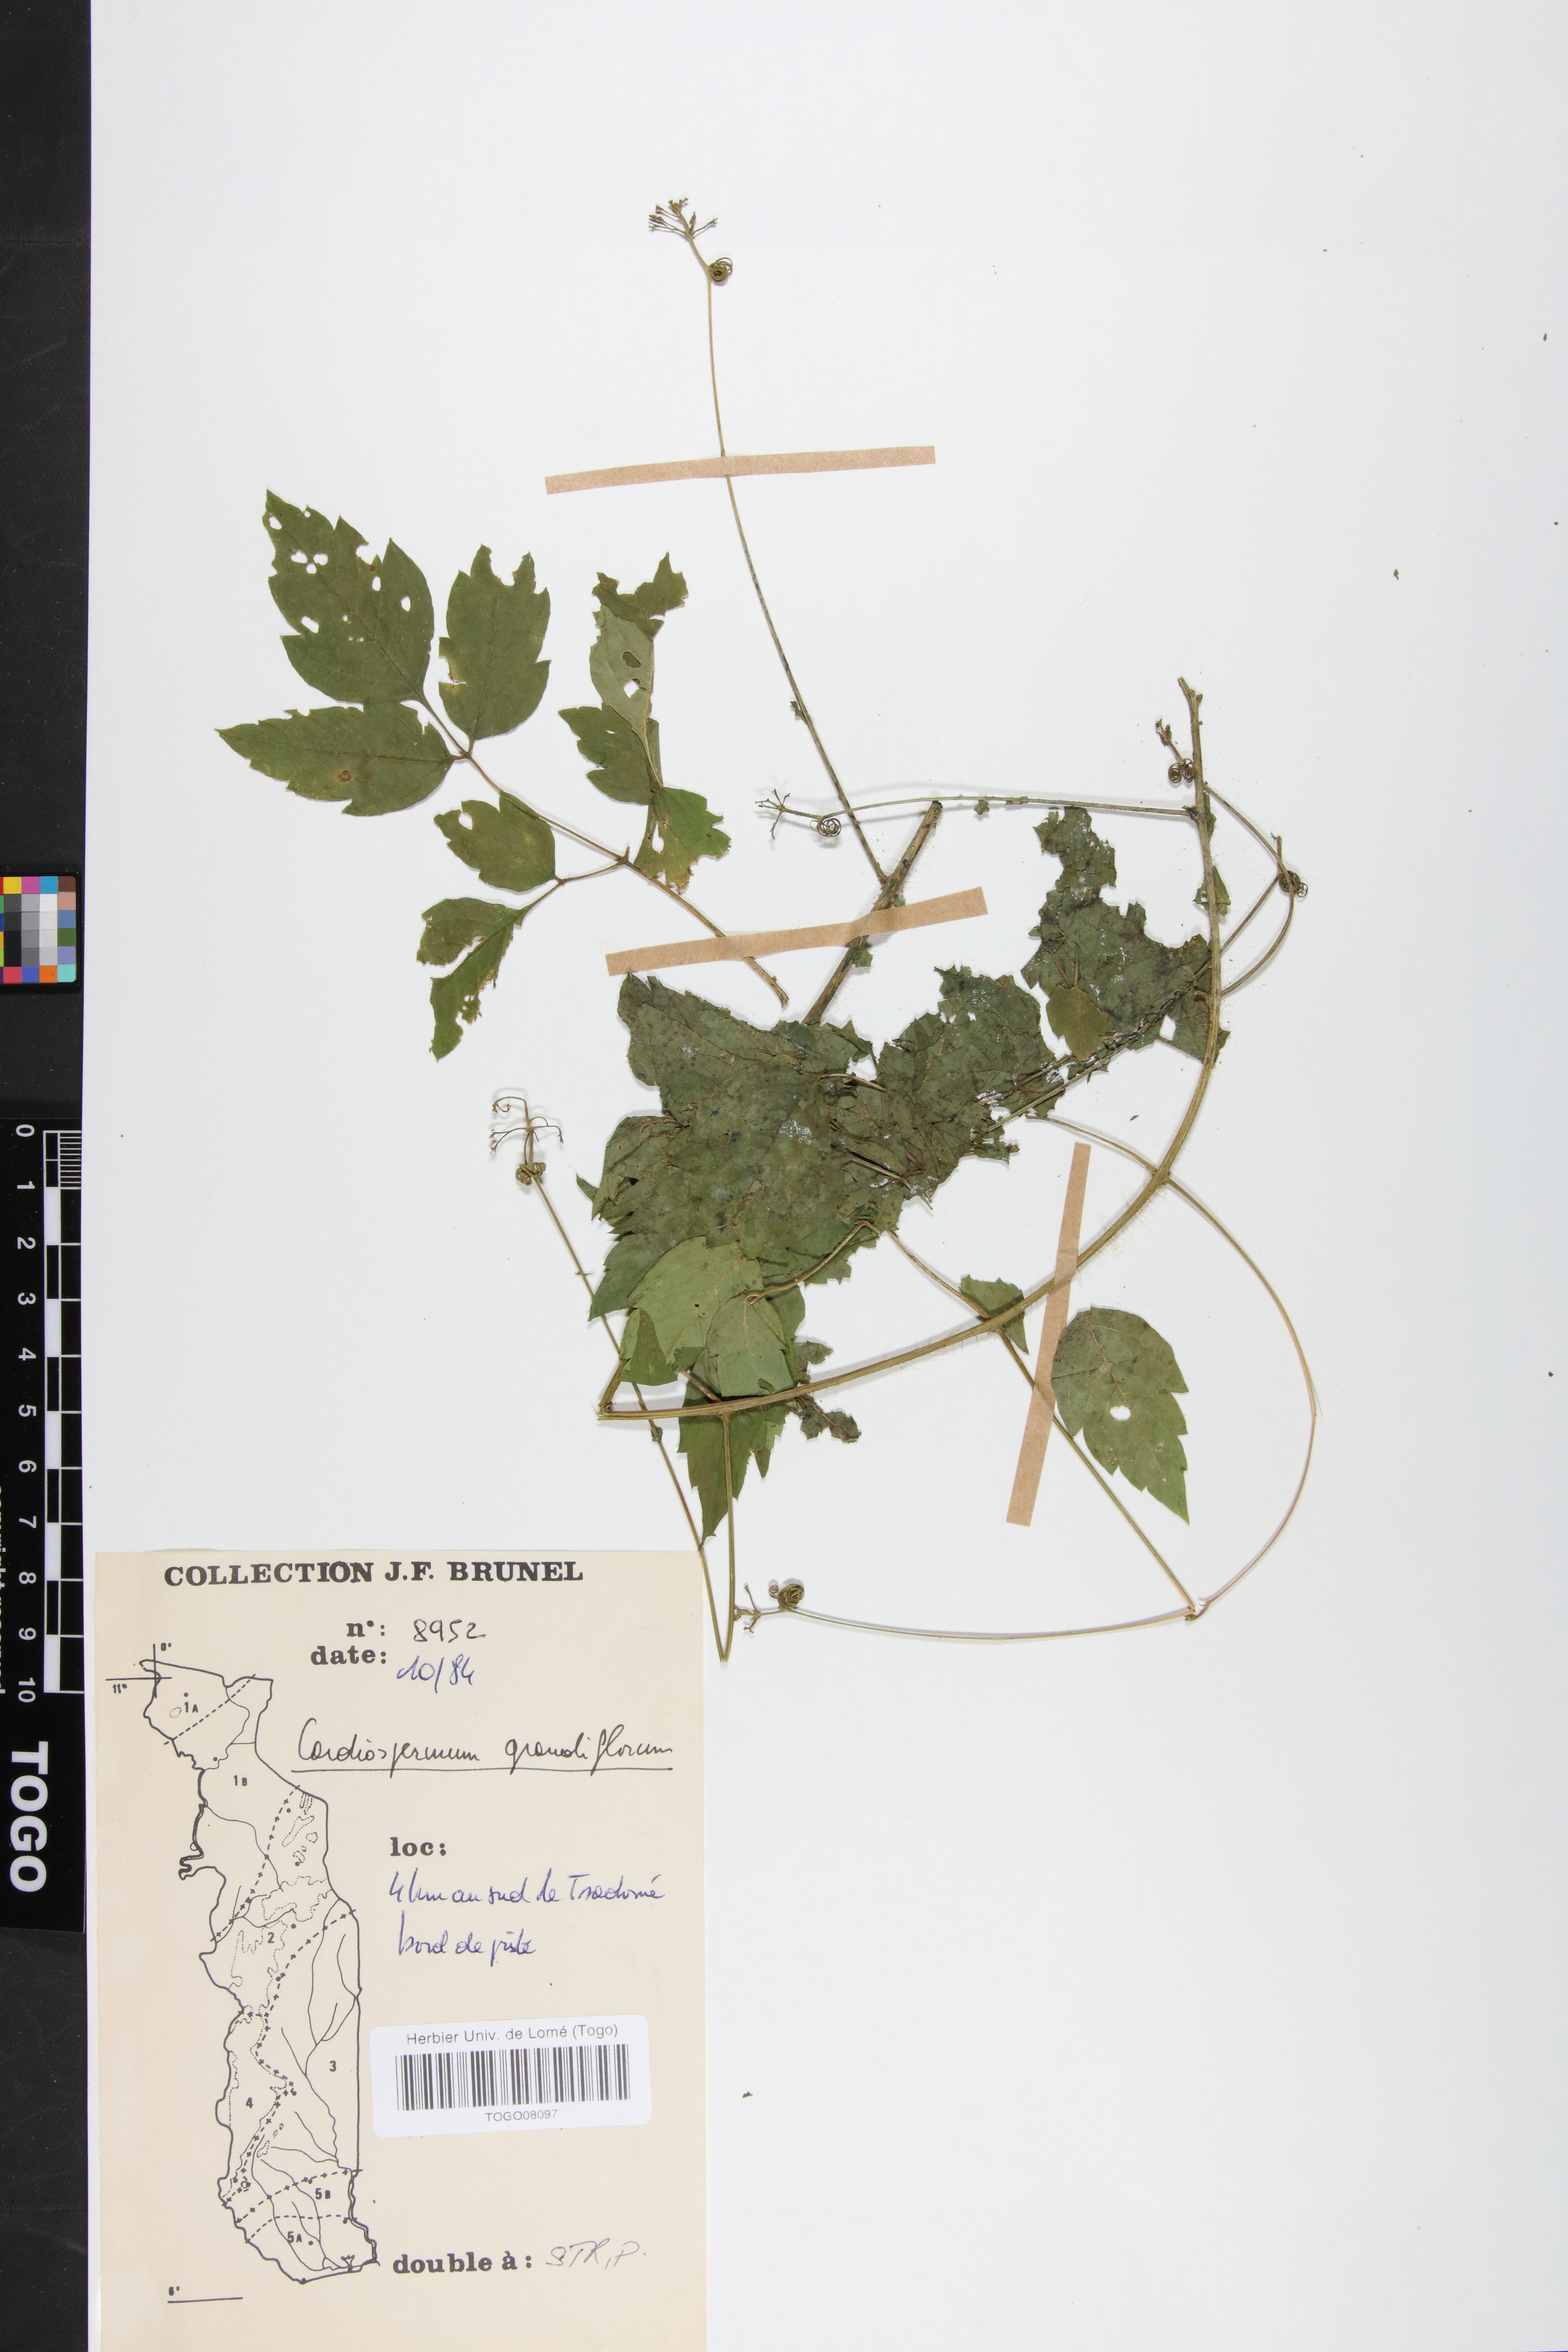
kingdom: Plantae
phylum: Tracheophyta
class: Magnoliopsida
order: Sapindales
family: Sapindaceae
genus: Cardiospermum
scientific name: Cardiospermum grandiflorum
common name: Balloon vine
